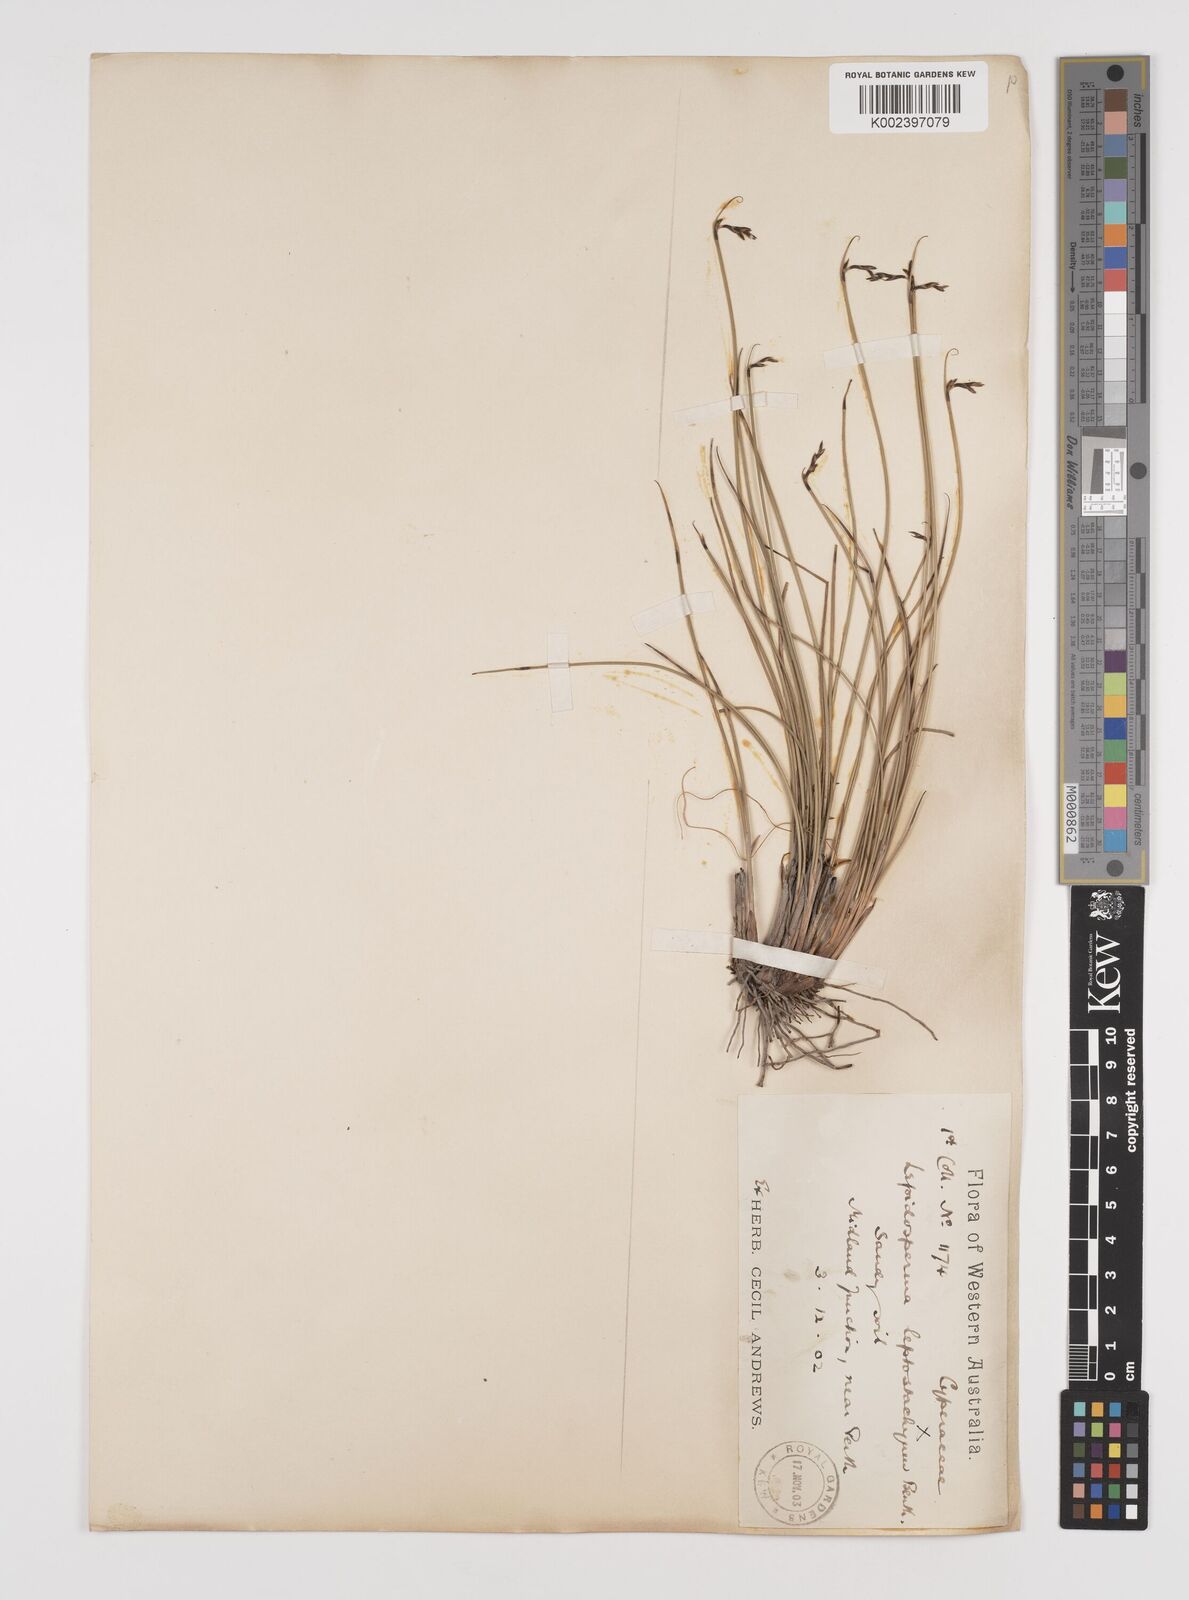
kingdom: Plantae
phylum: Tracheophyta
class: Liliopsida
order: Poales
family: Cyperaceae
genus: Lepidosperma
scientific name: Lepidosperma tortuosum
